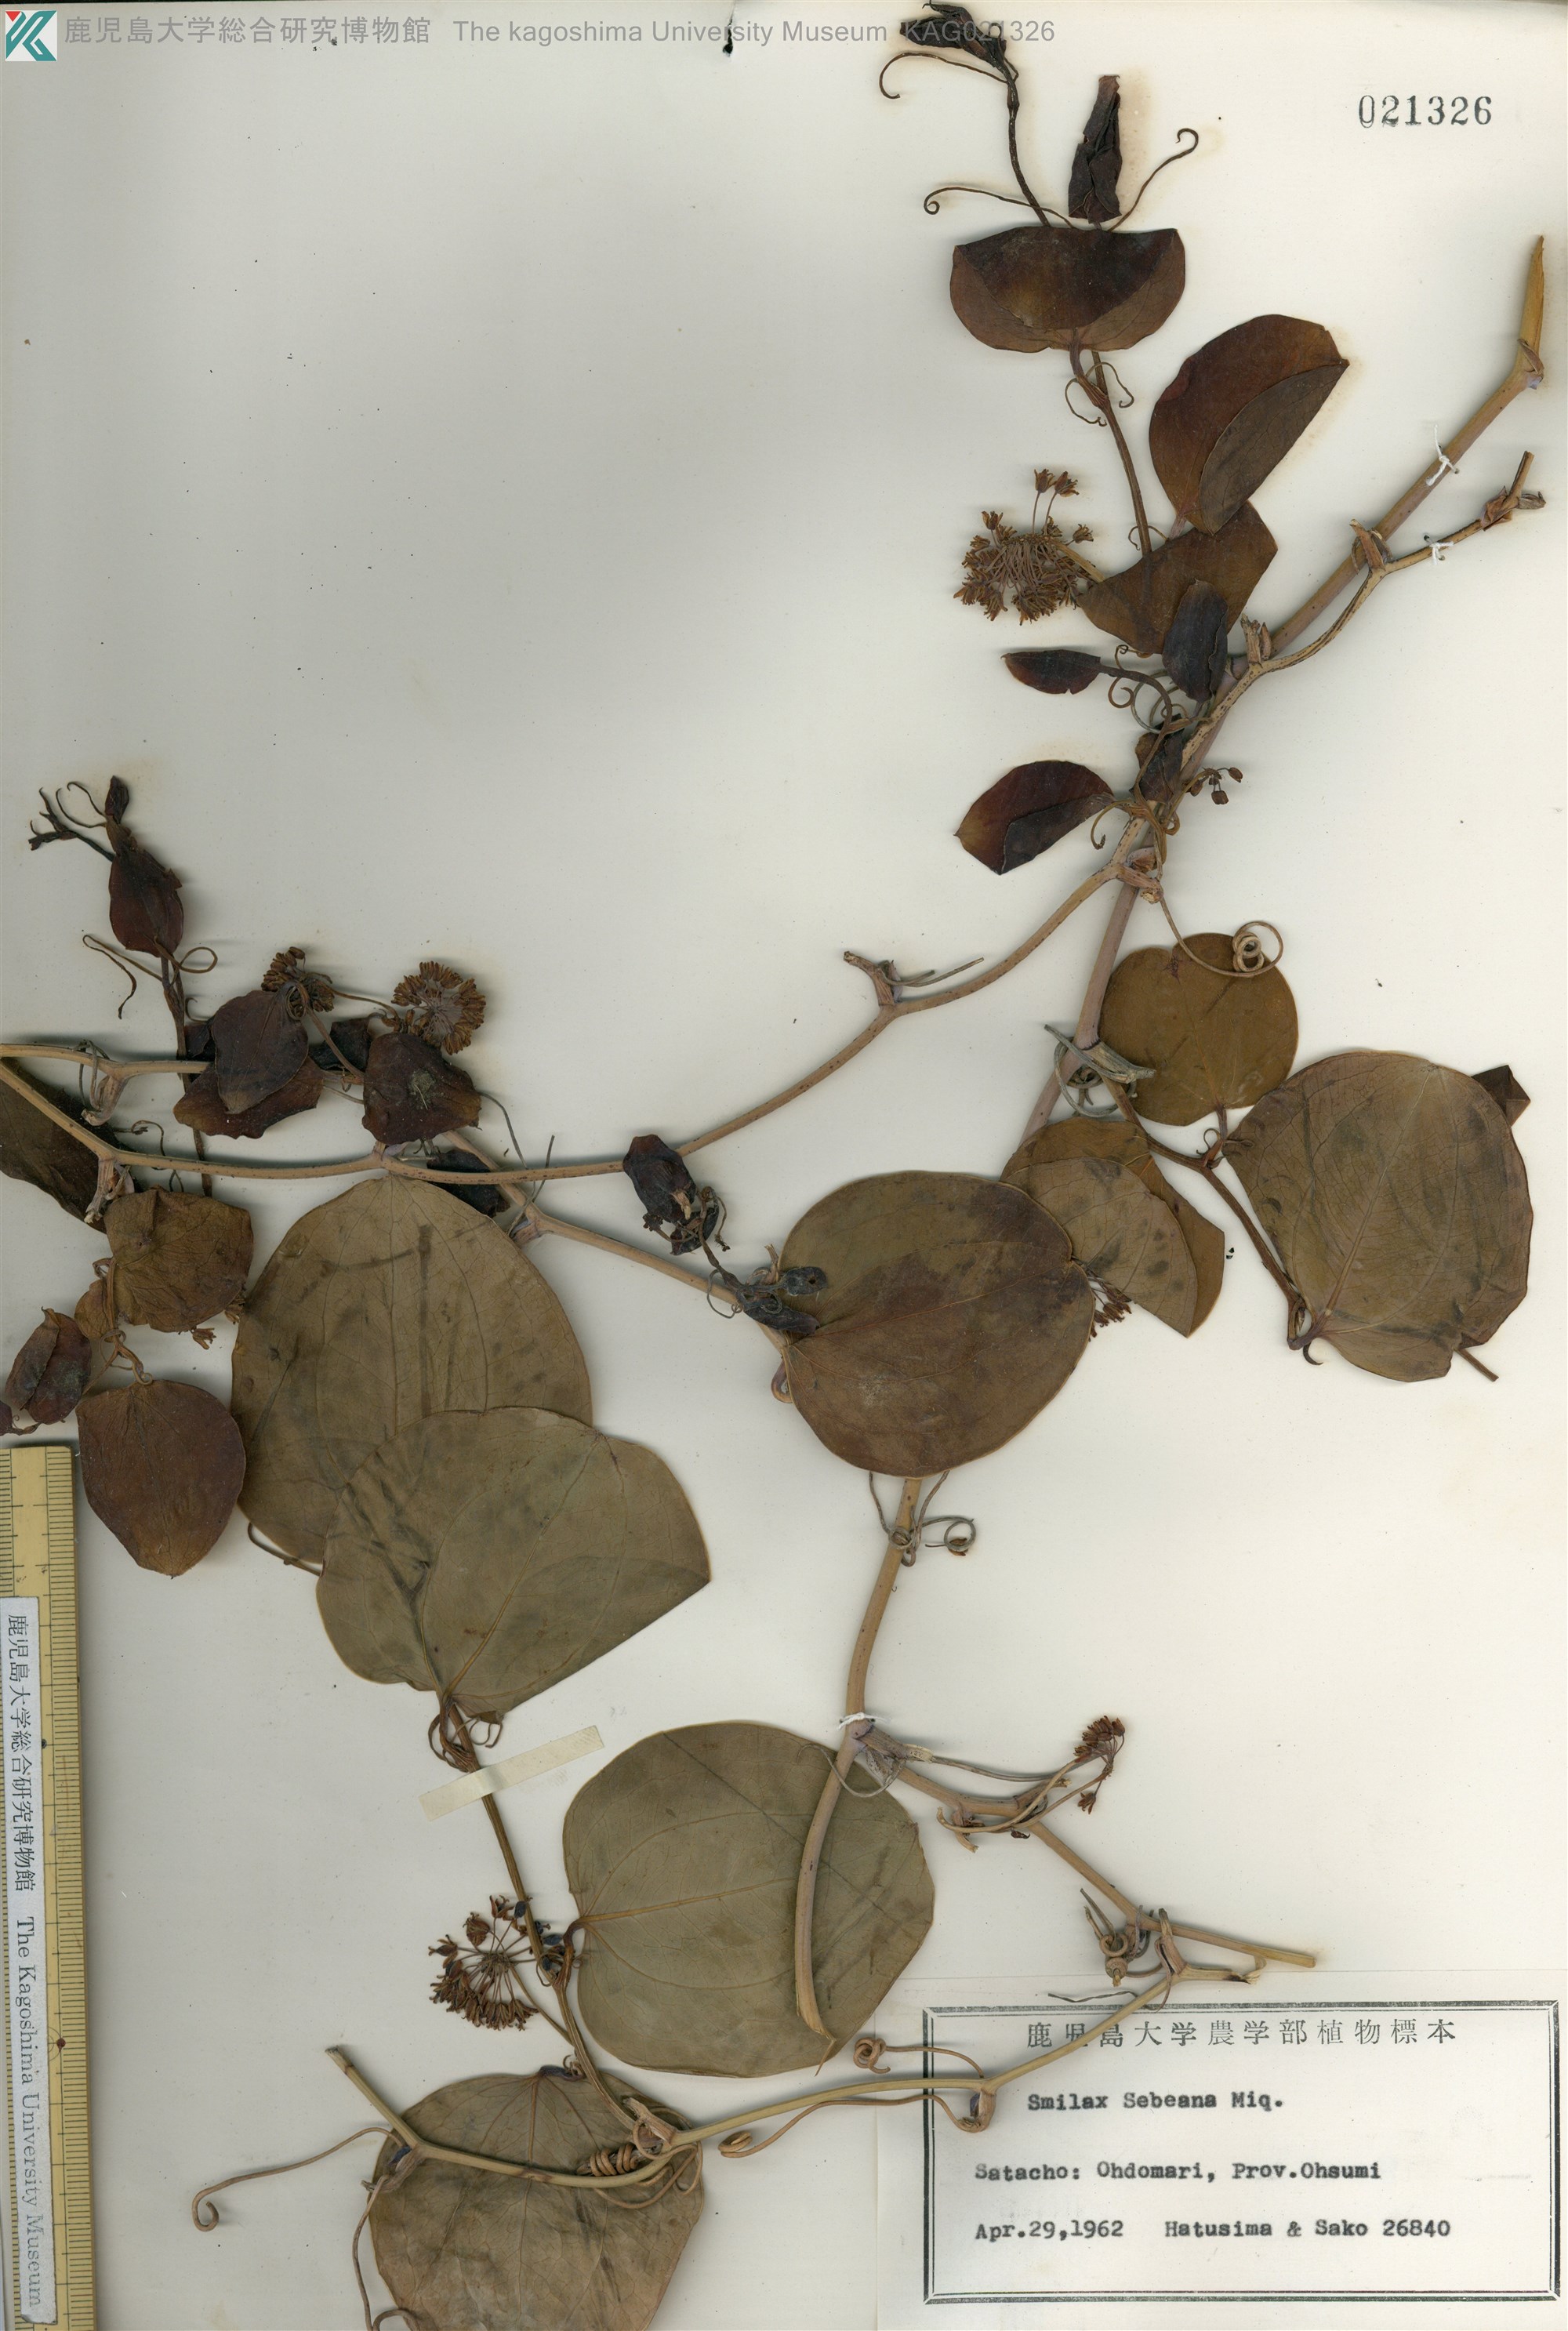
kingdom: Plantae
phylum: Tracheophyta
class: Liliopsida
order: Liliales
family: Smilacaceae
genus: Smilax
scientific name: Smilax sebeana
